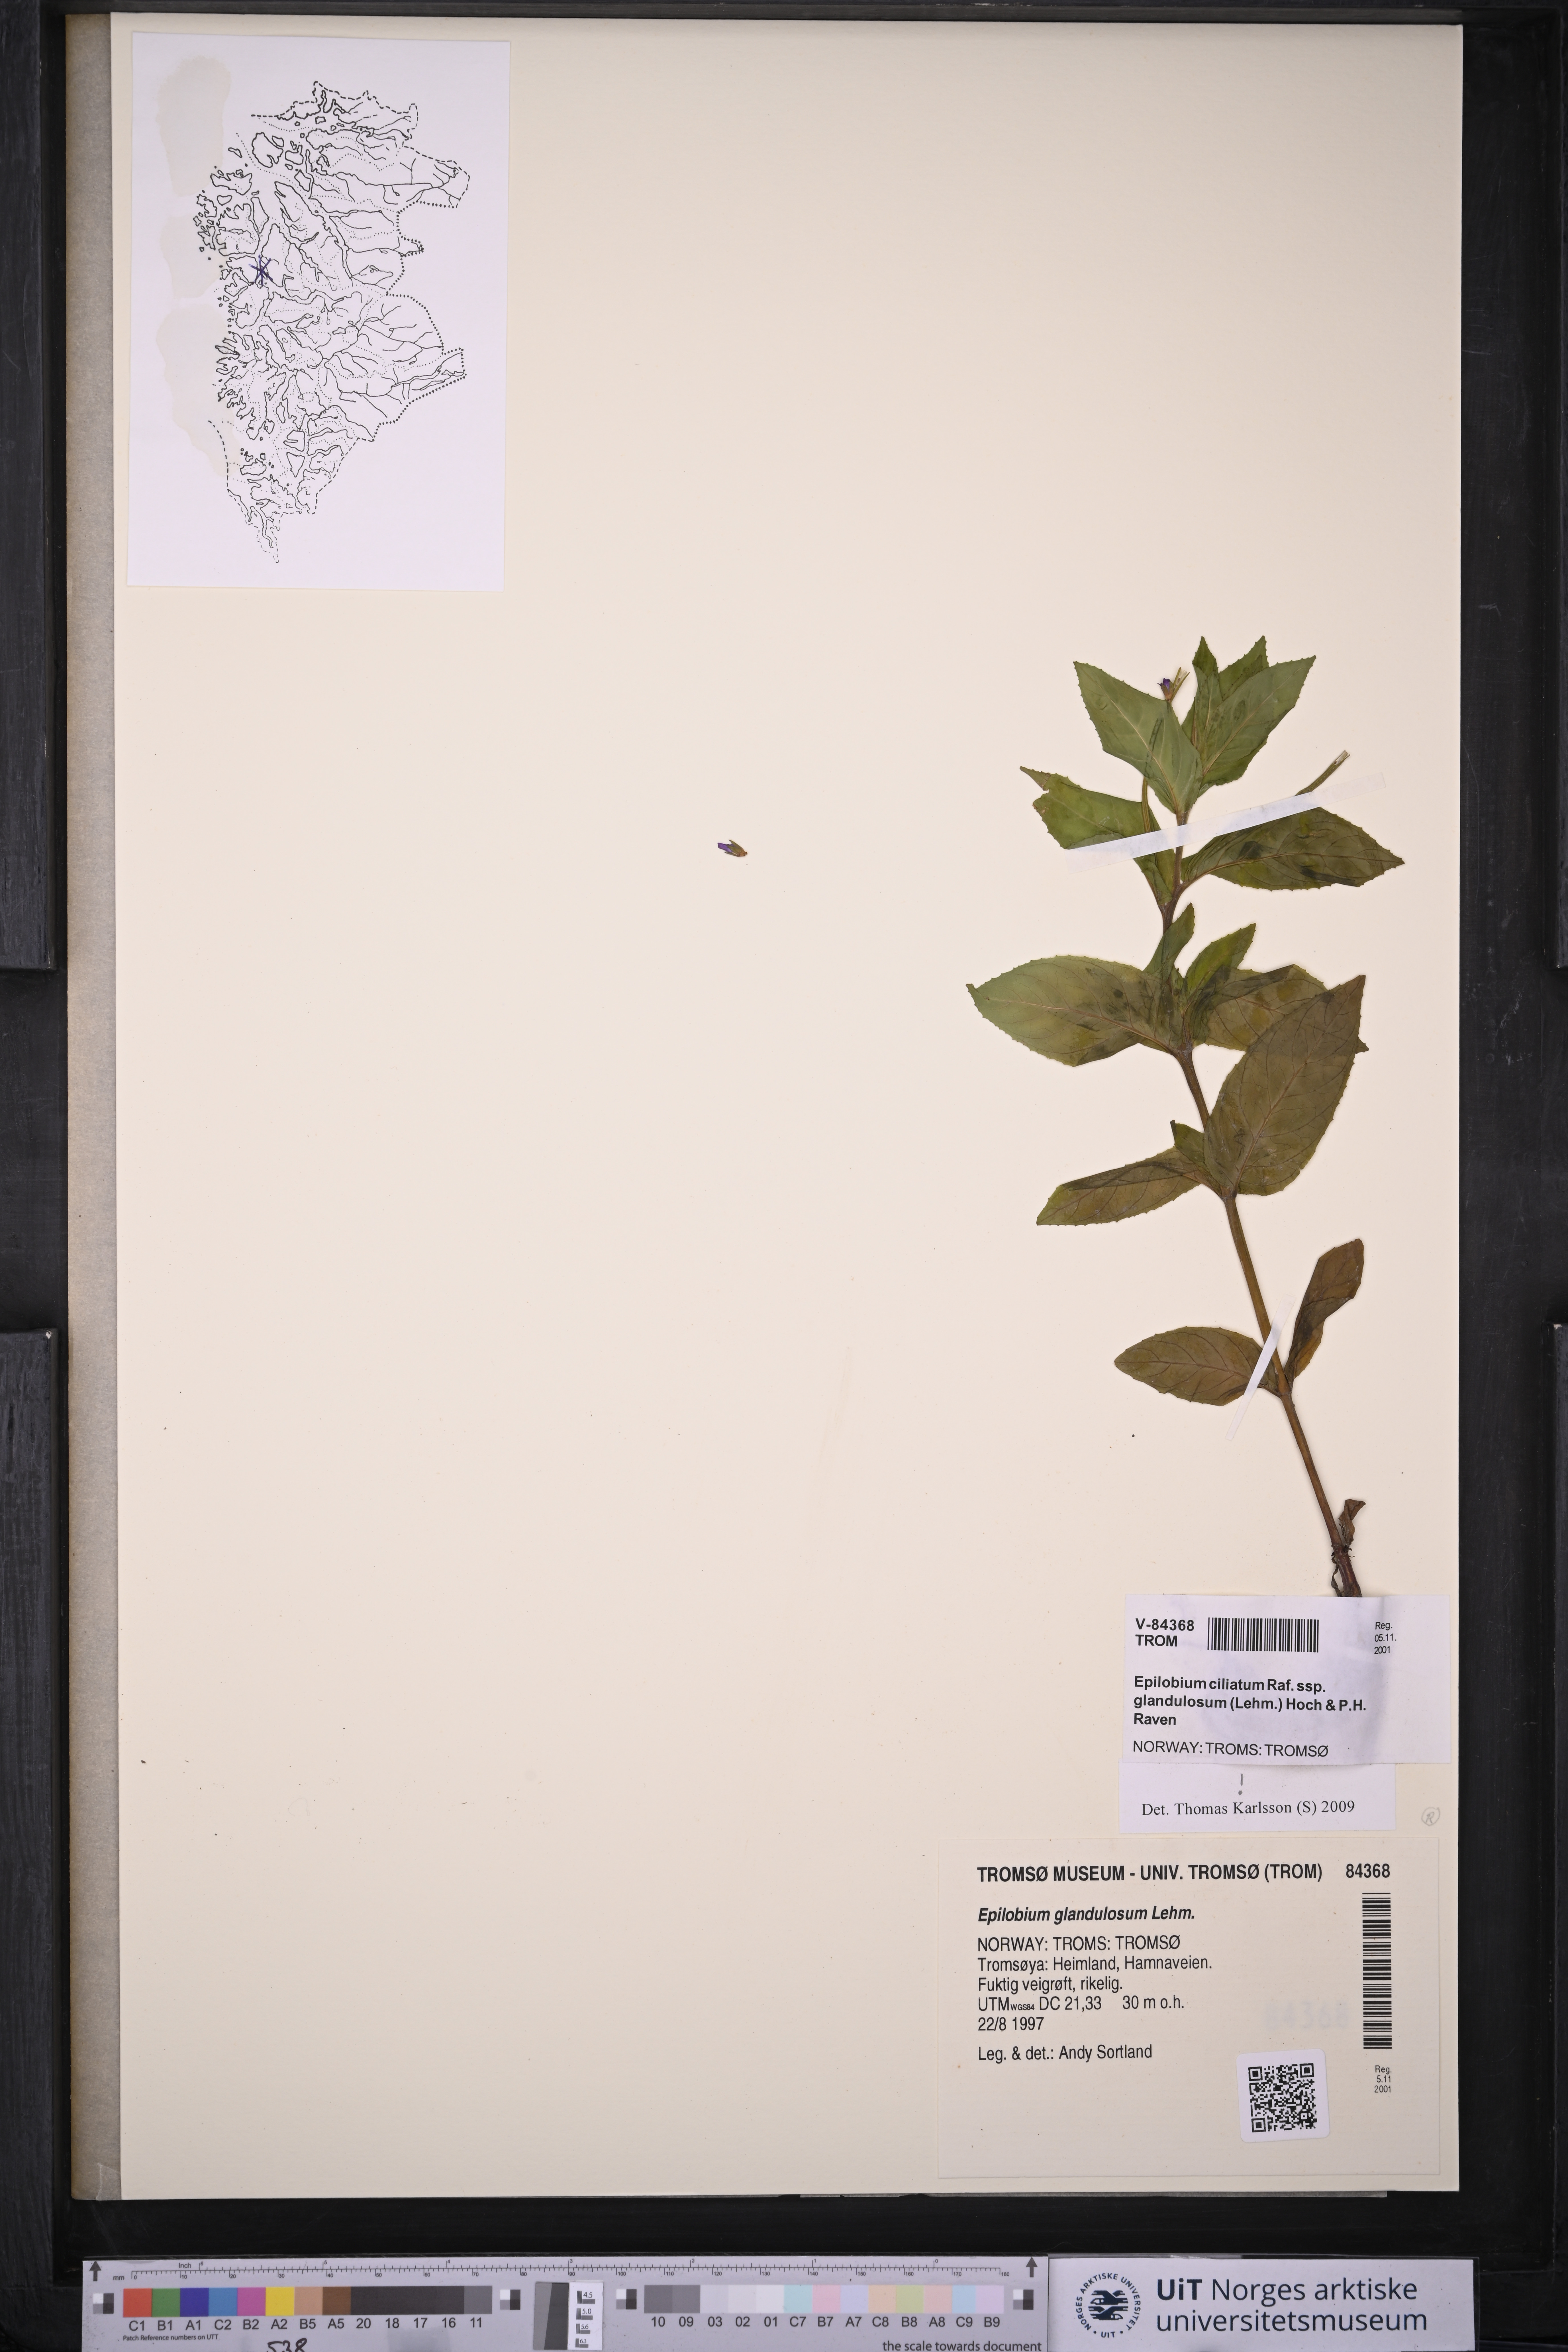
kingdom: Plantae
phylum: Tracheophyta
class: Magnoliopsida
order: Myrtales
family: Onagraceae
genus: Epilobium
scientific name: Epilobium ciliatum
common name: American willowherb
